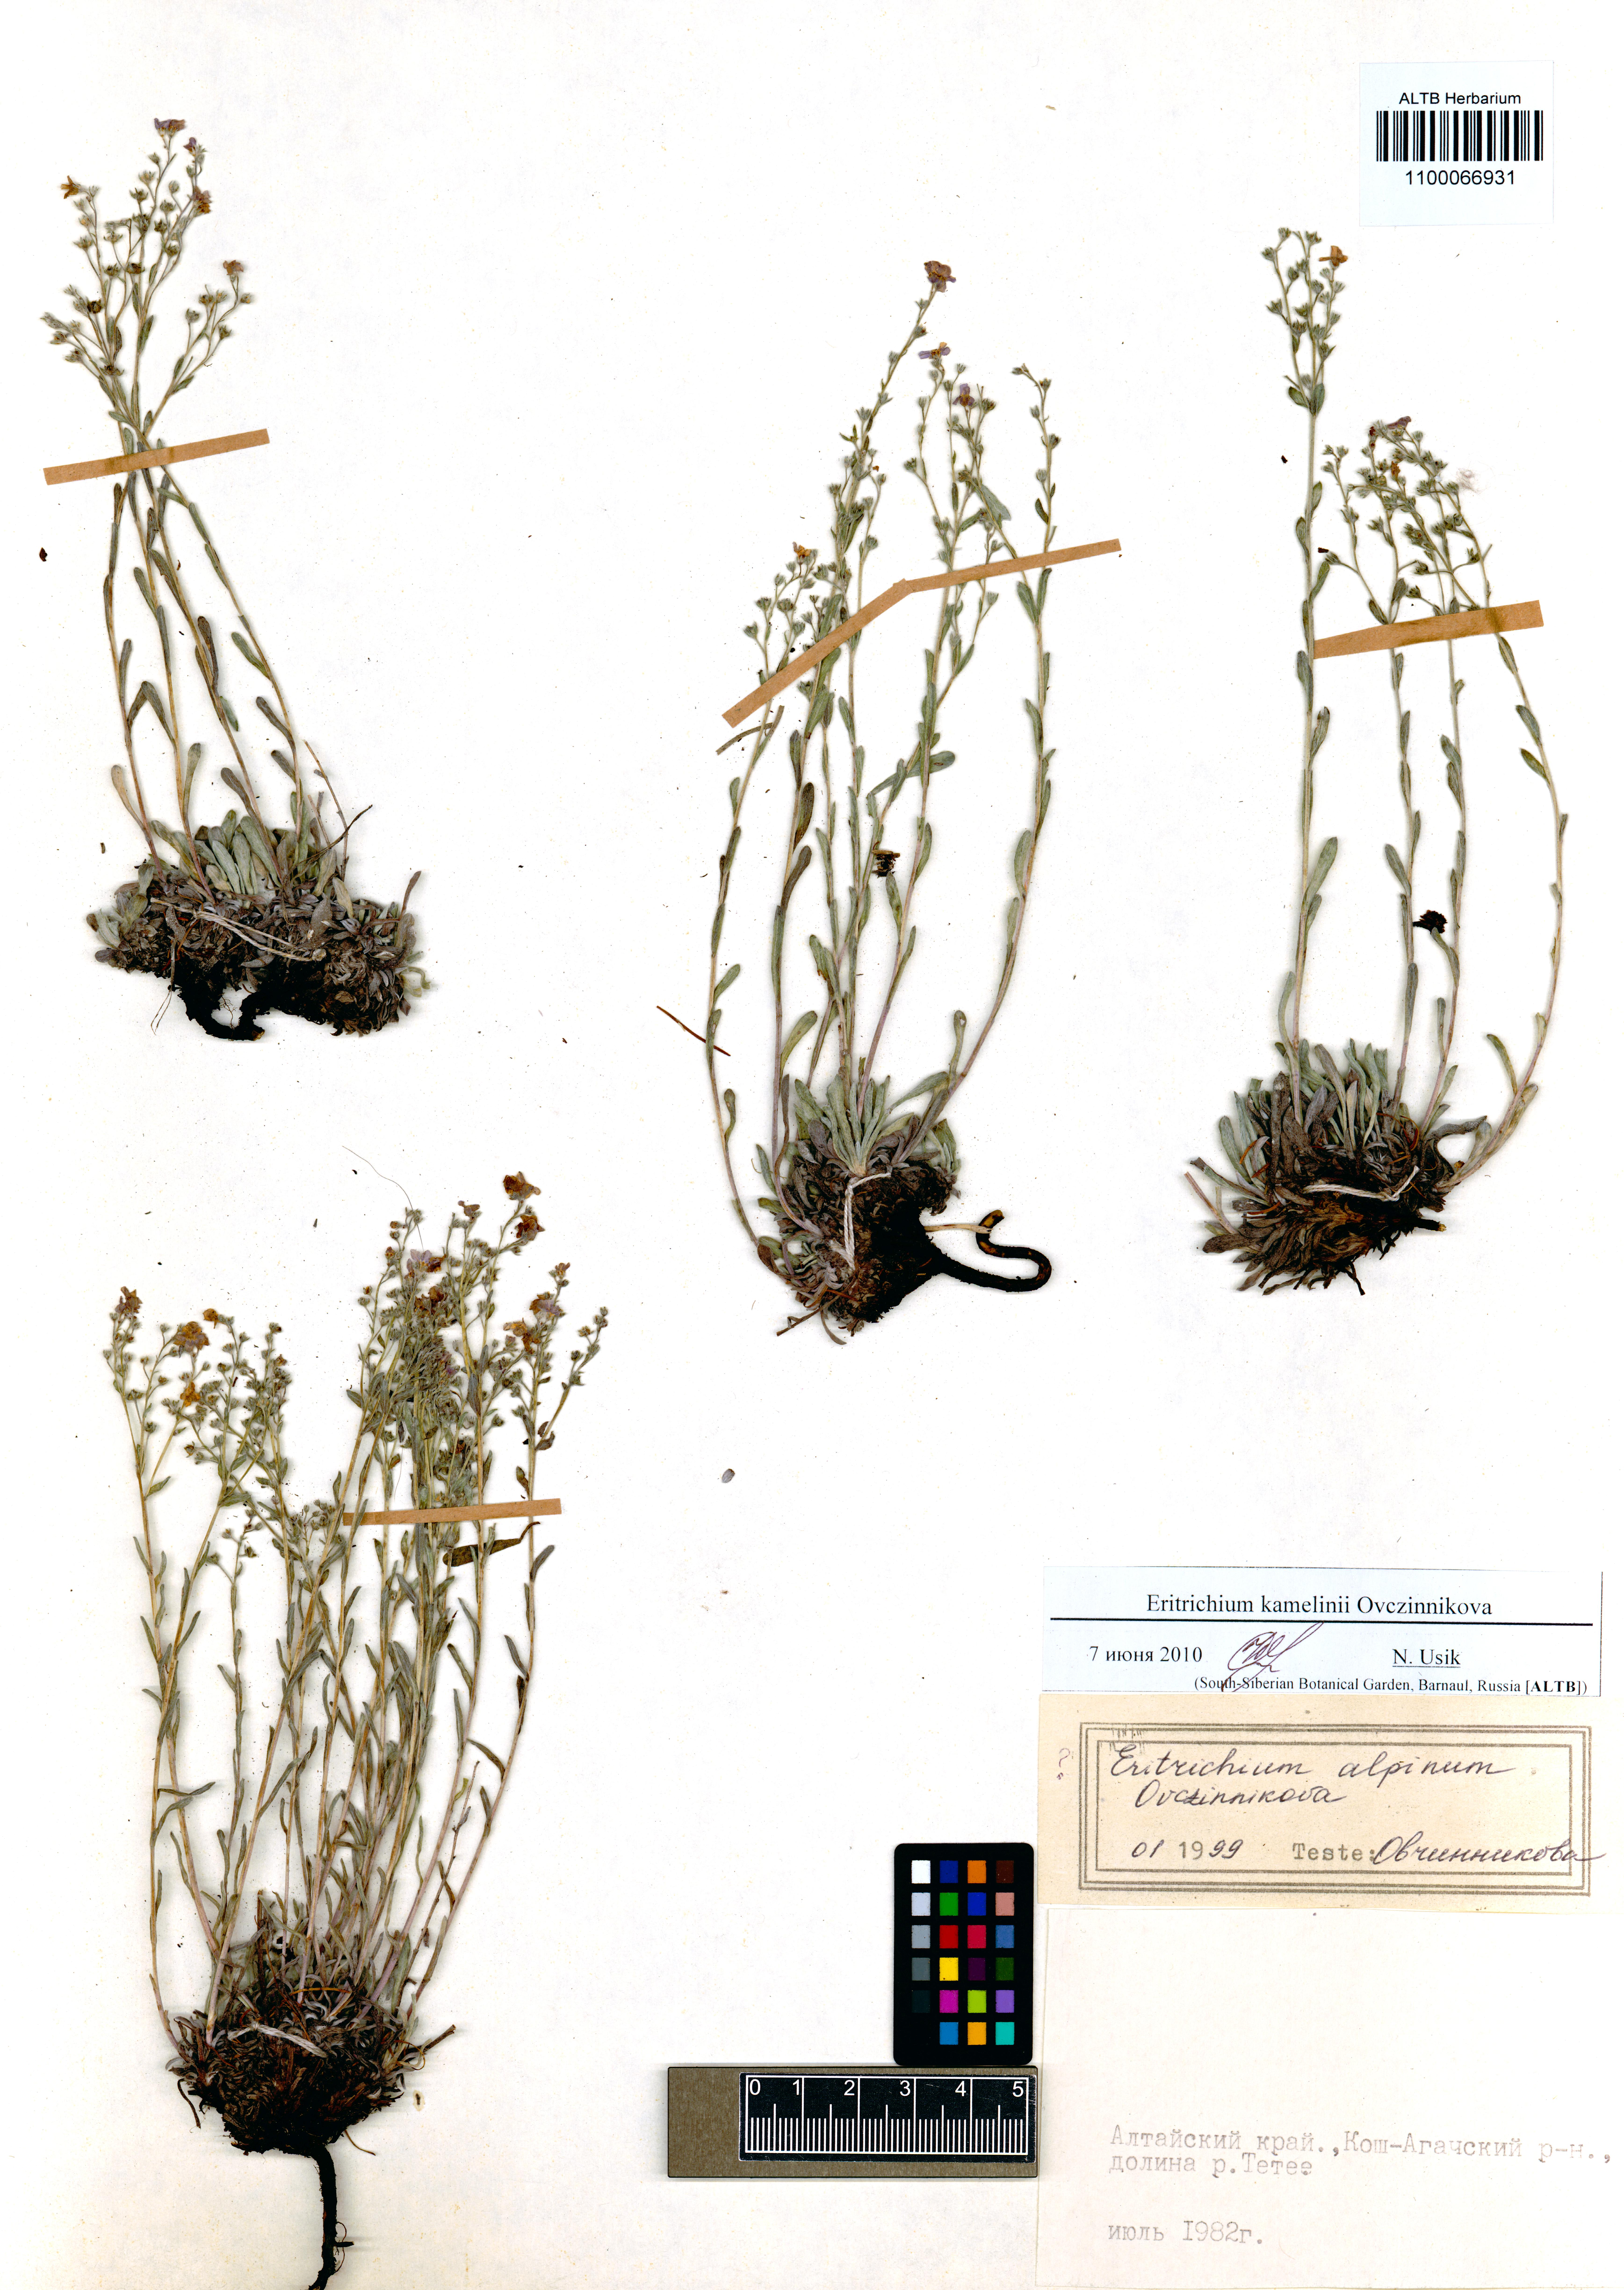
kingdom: Plantae
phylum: Tracheophyta
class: Magnoliopsida
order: Boraginales
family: Boraginaceae
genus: Eritrichium
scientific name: Eritrichium kamelinii
